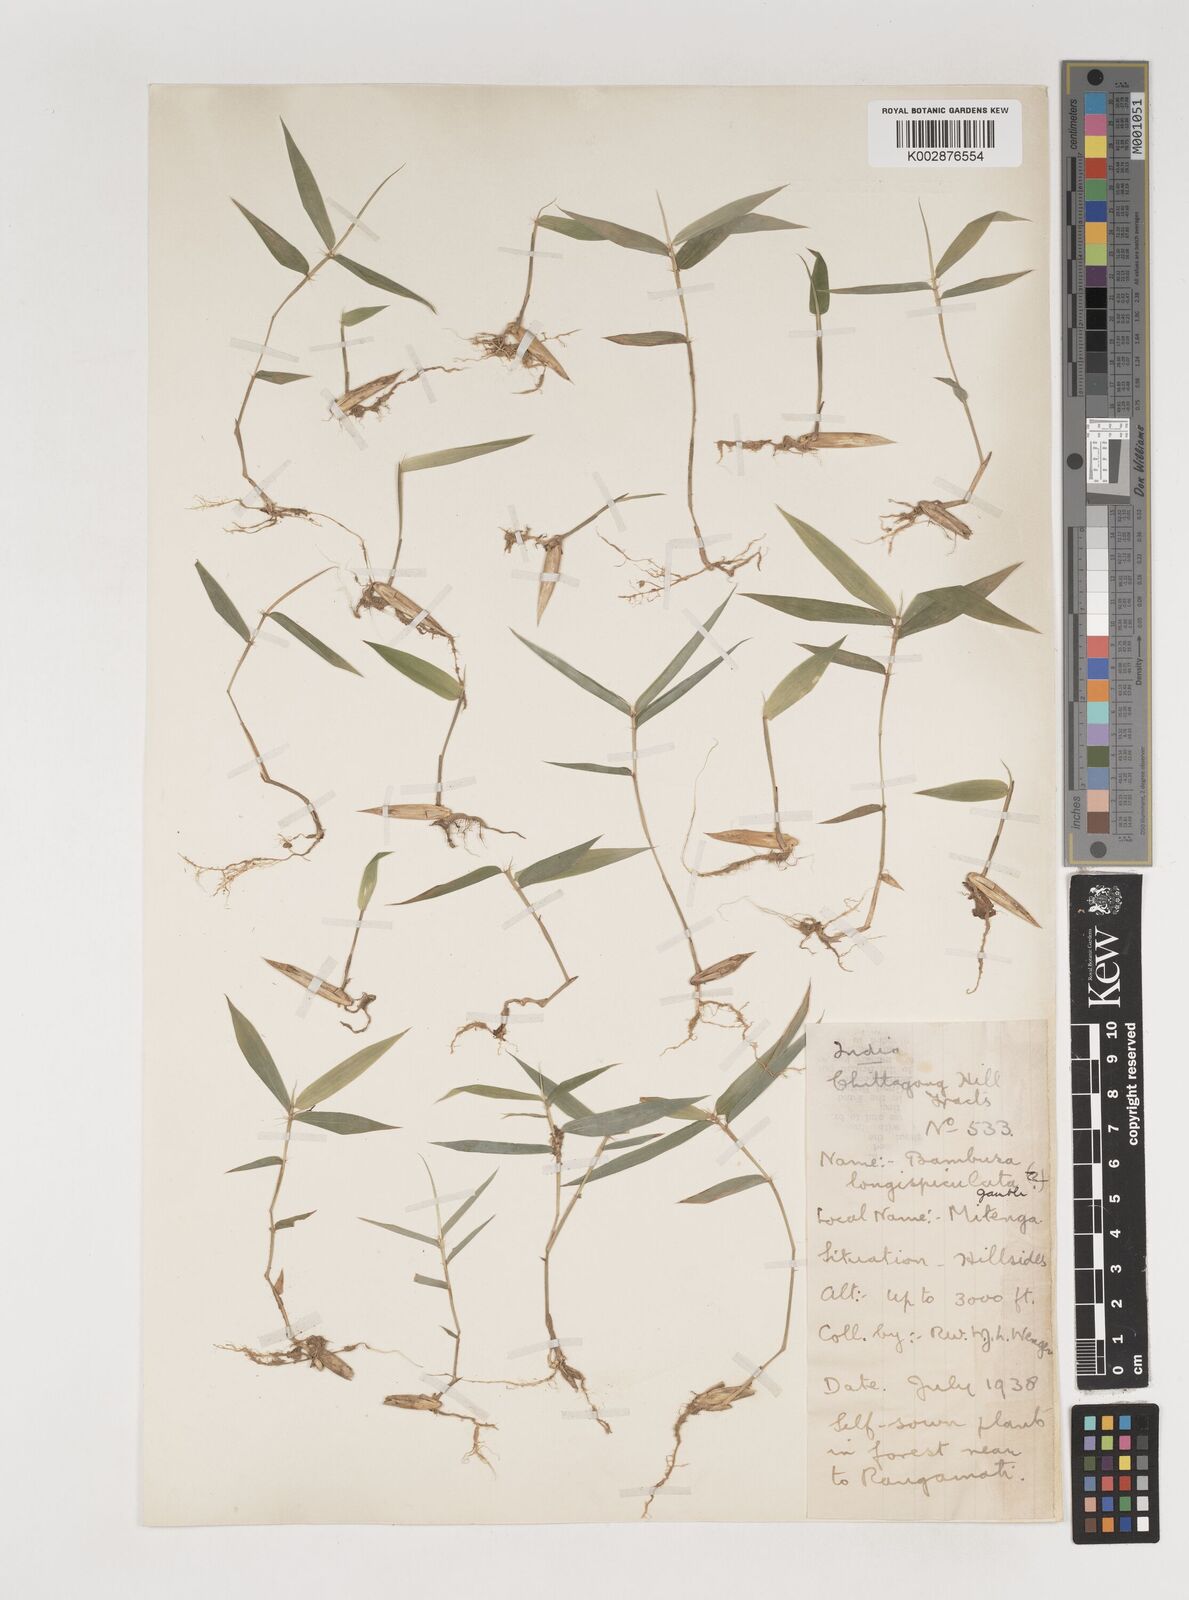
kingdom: Plantae
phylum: Tracheophyta
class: Liliopsida
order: Poales
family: Poaceae
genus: Bambusa
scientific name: Bambusa longispiculata
